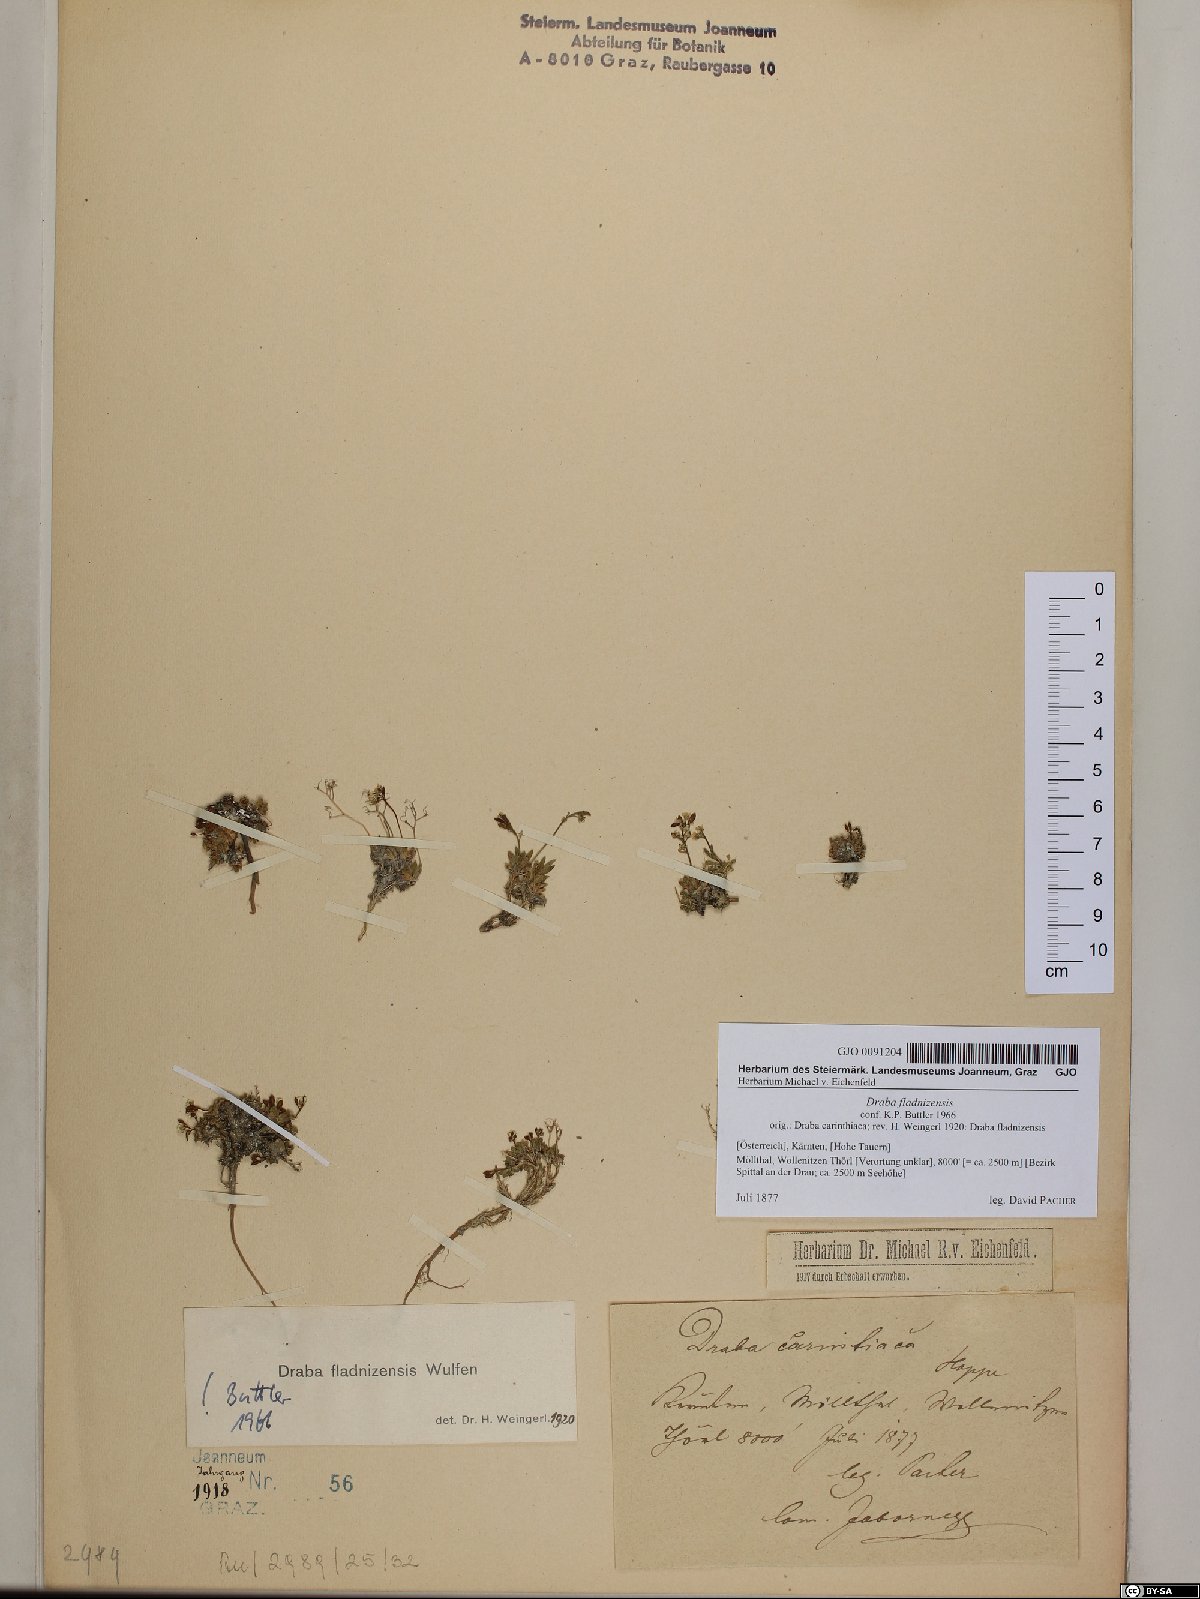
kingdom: Plantae
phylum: Tracheophyta
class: Magnoliopsida
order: Brassicales
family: Brassicaceae
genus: Draba
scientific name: Draba fladnizensis
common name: Austrian draba
